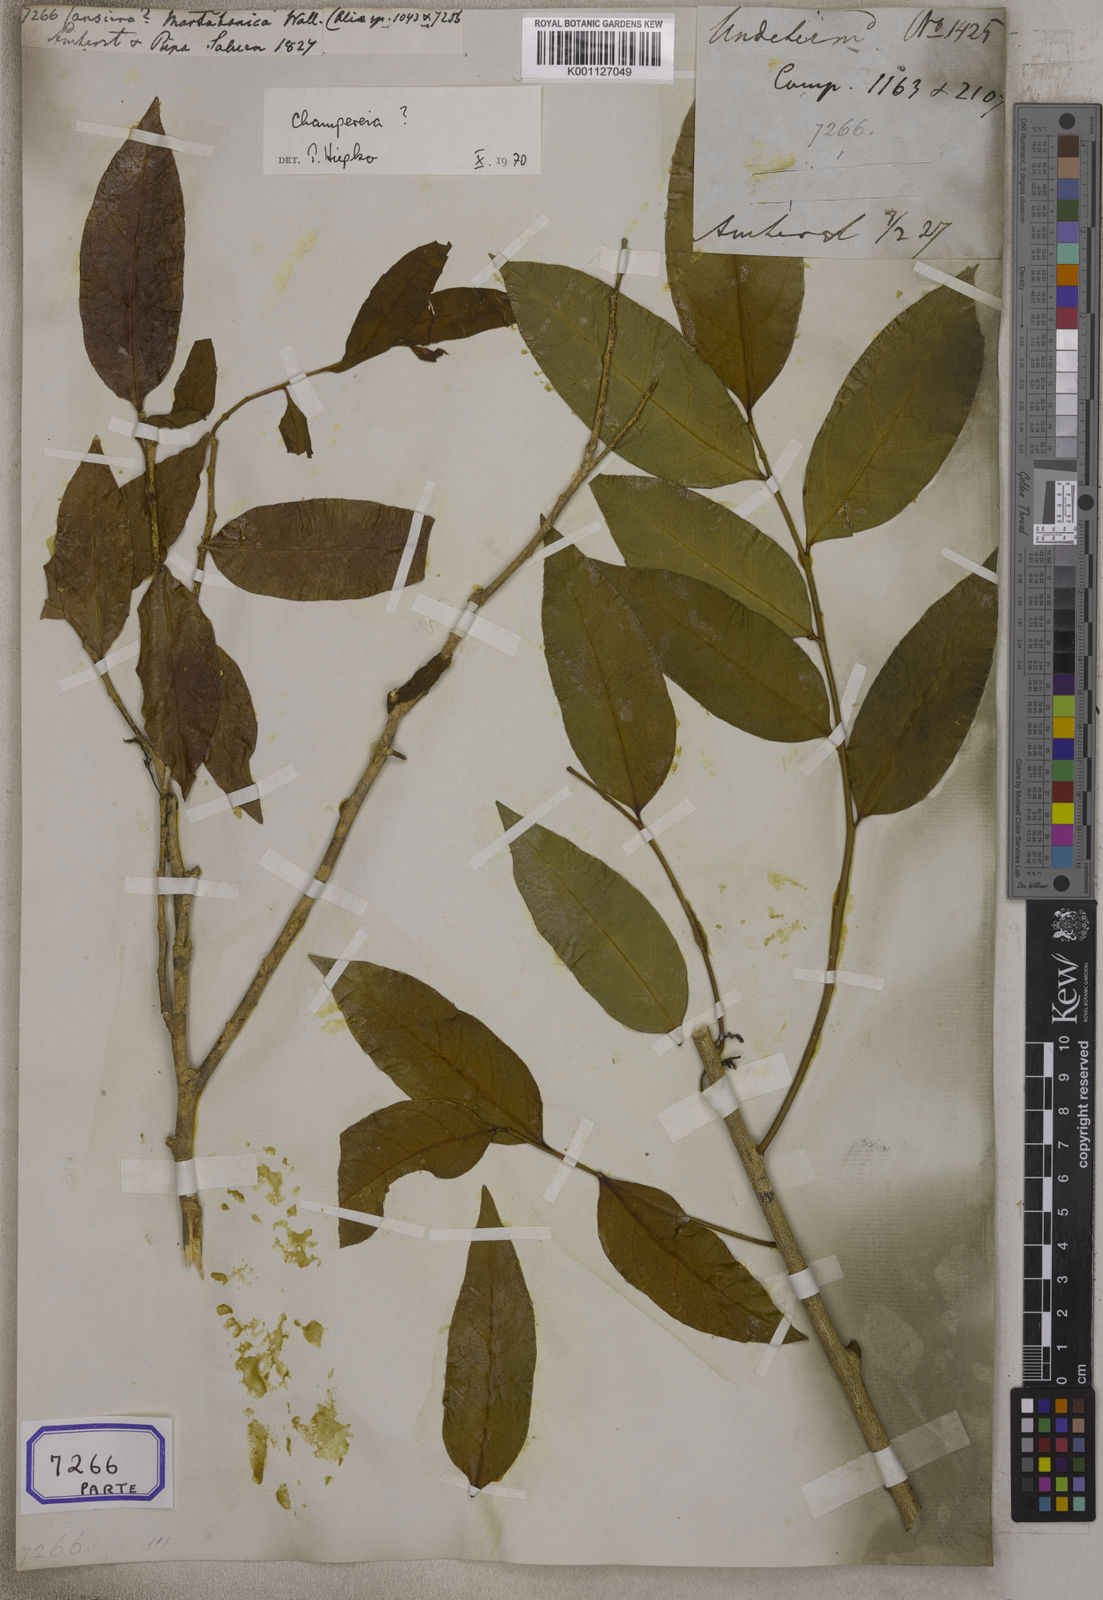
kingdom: Plantae
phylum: Tracheophyta
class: Magnoliopsida
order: Santalales
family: Opiliaceae
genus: Champereia
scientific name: Champereia manillana
